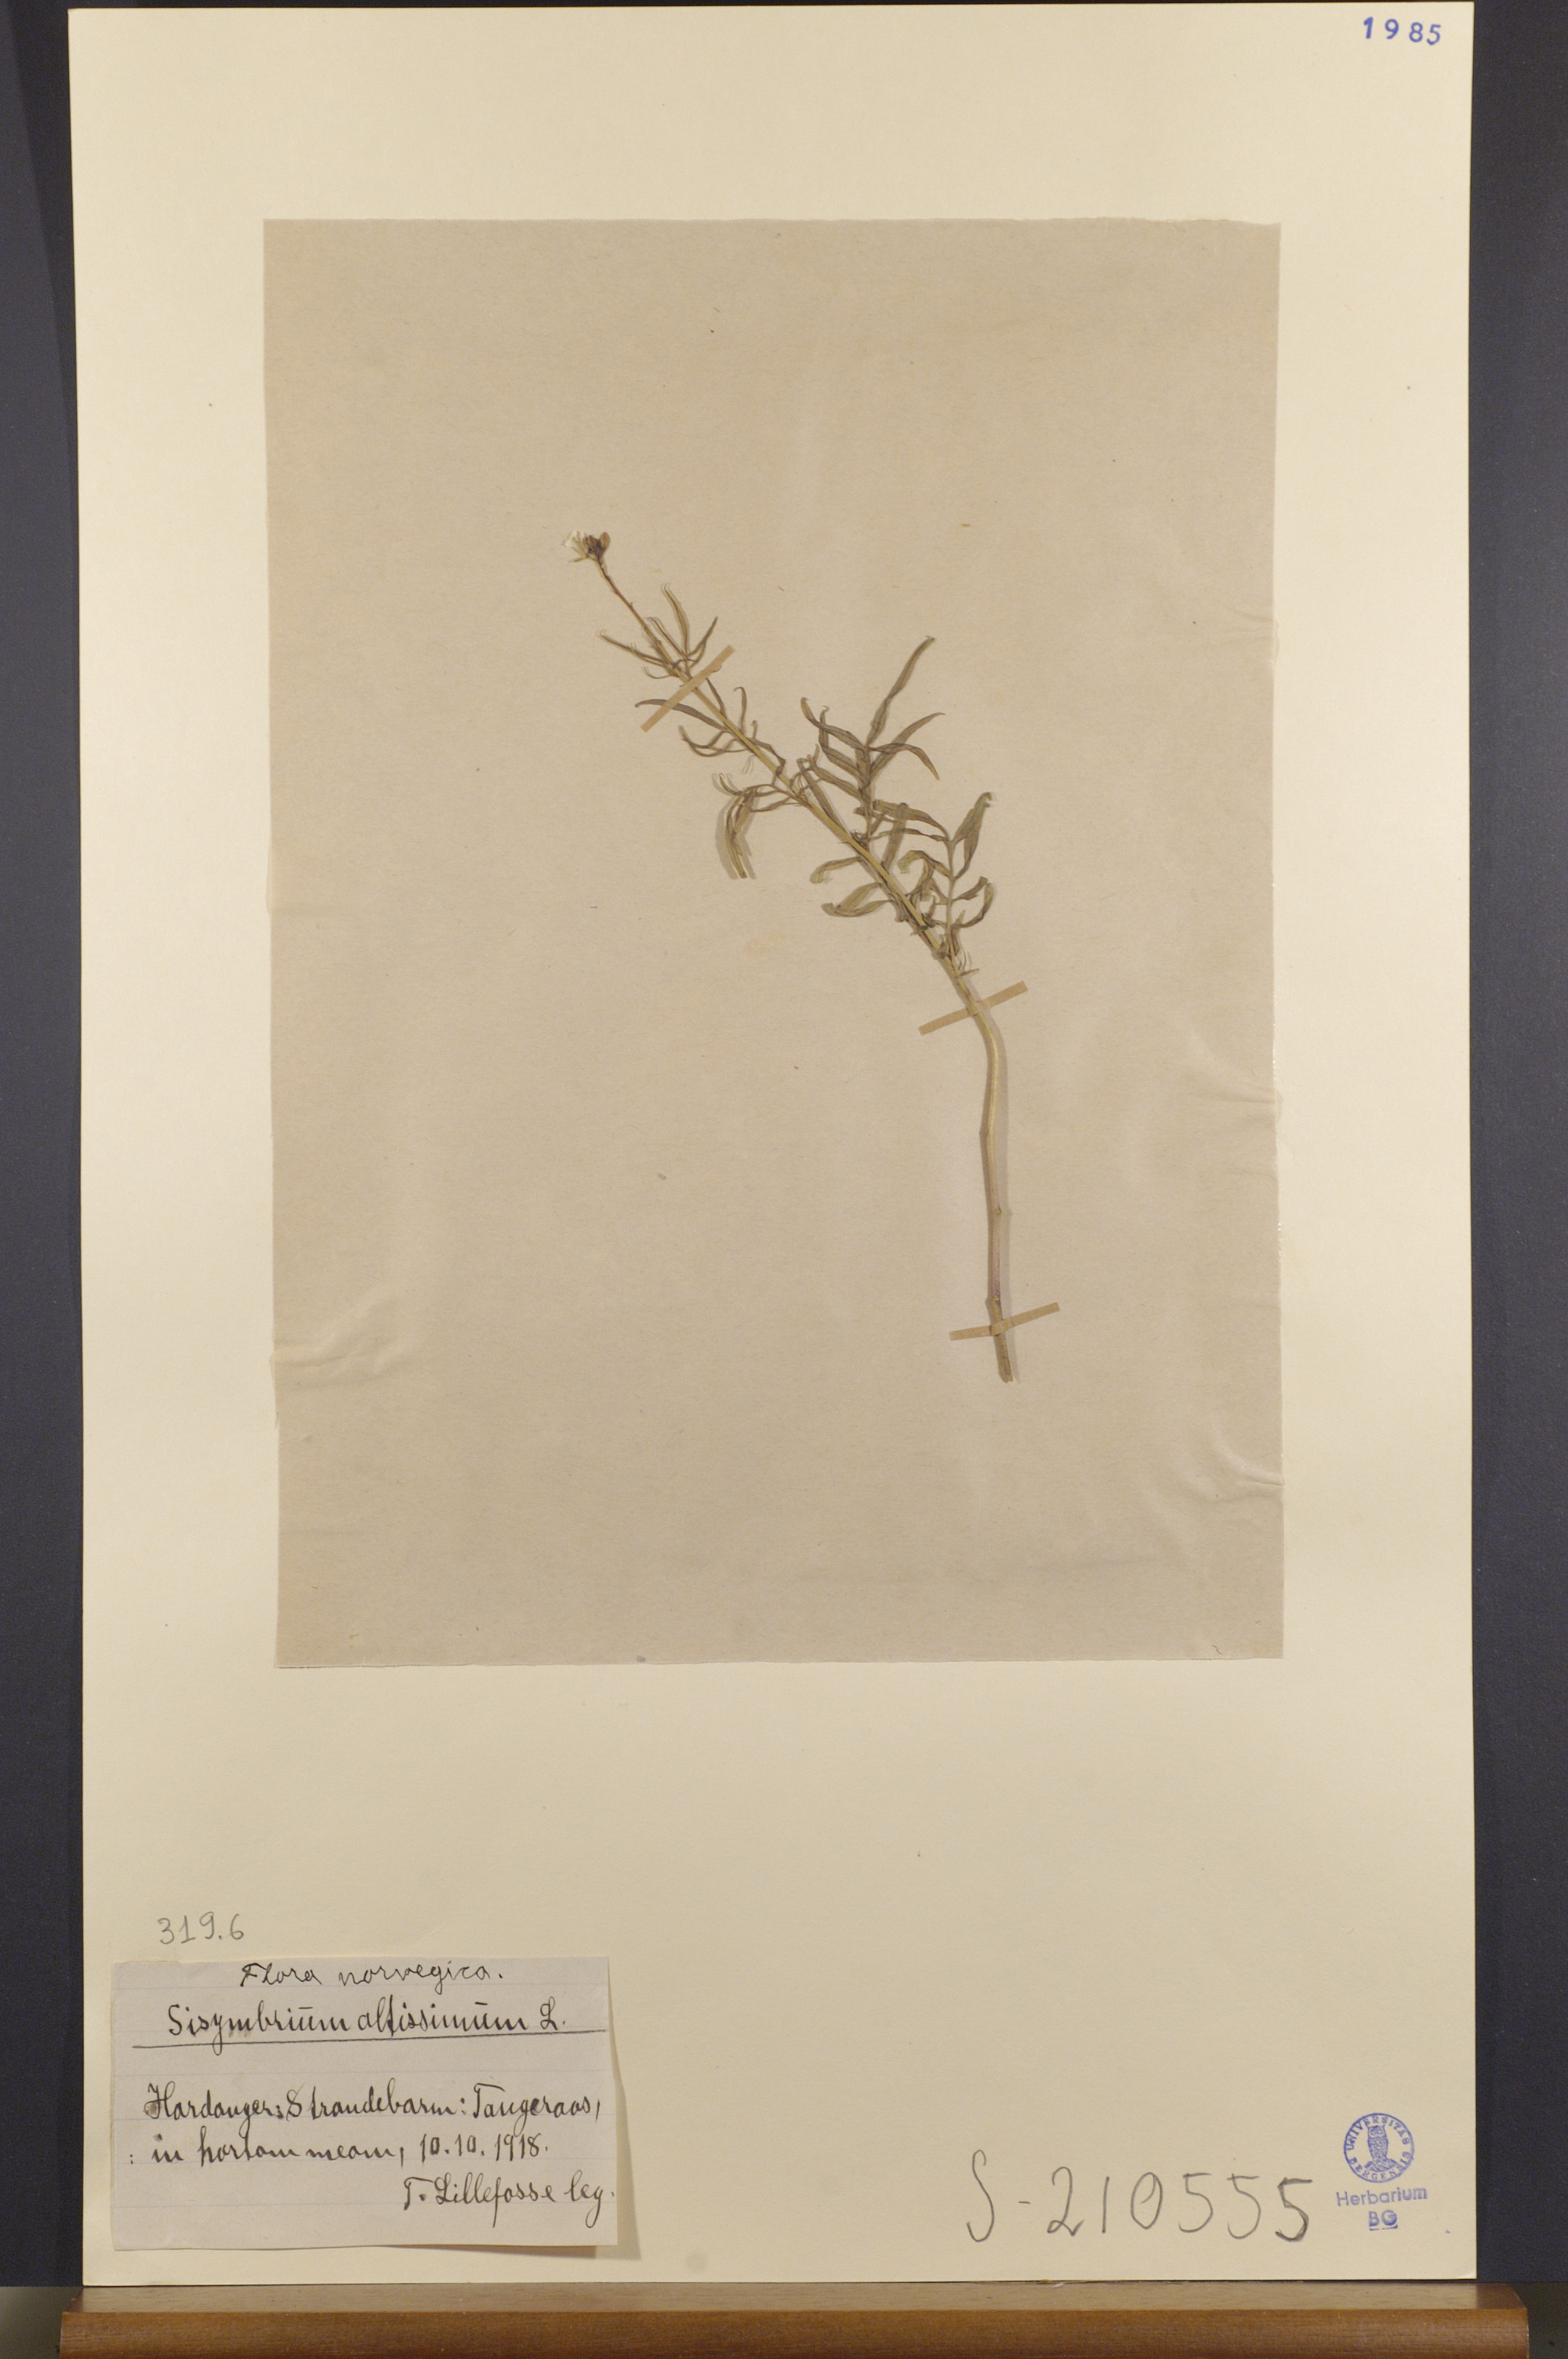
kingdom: Plantae
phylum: Tracheophyta
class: Magnoliopsida
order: Brassicales
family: Brassicaceae
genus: Sisymbrium
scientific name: Sisymbrium altissimum
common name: Tall rocket
